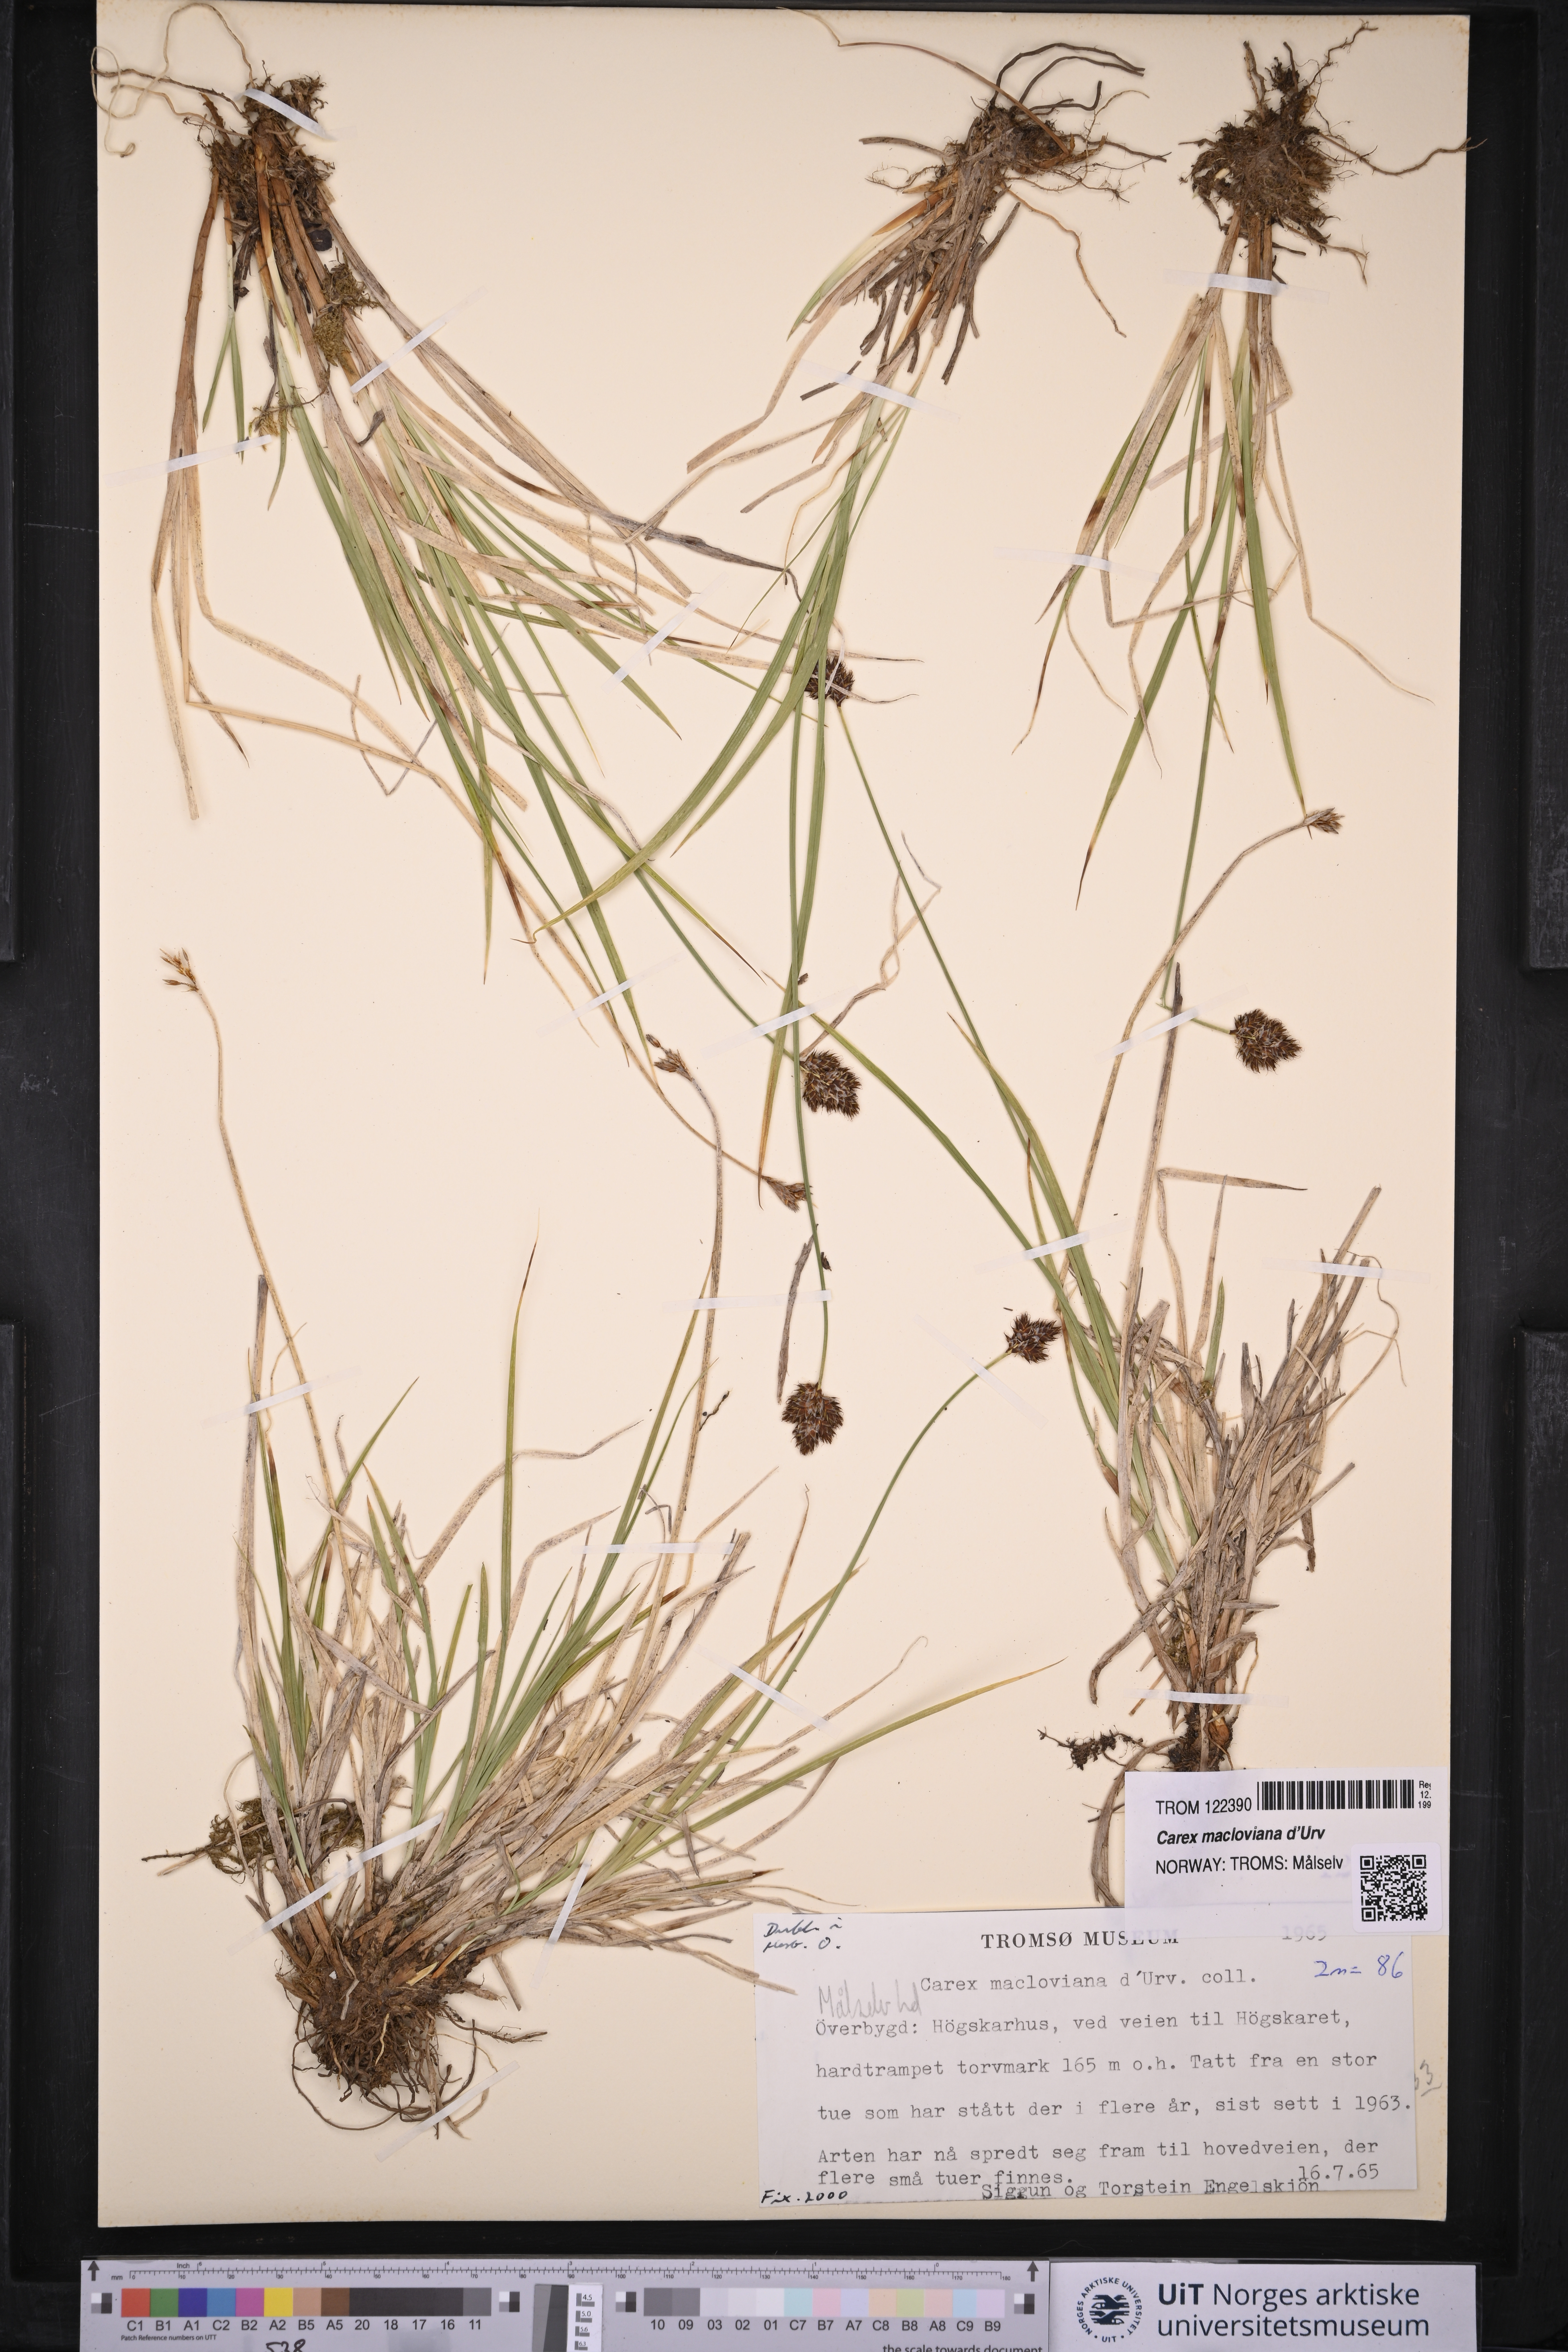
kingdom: Plantae
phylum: Tracheophyta
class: Liliopsida
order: Poales
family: Cyperaceae
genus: Carex
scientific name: Carex macloviana
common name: Falkland island sedge
